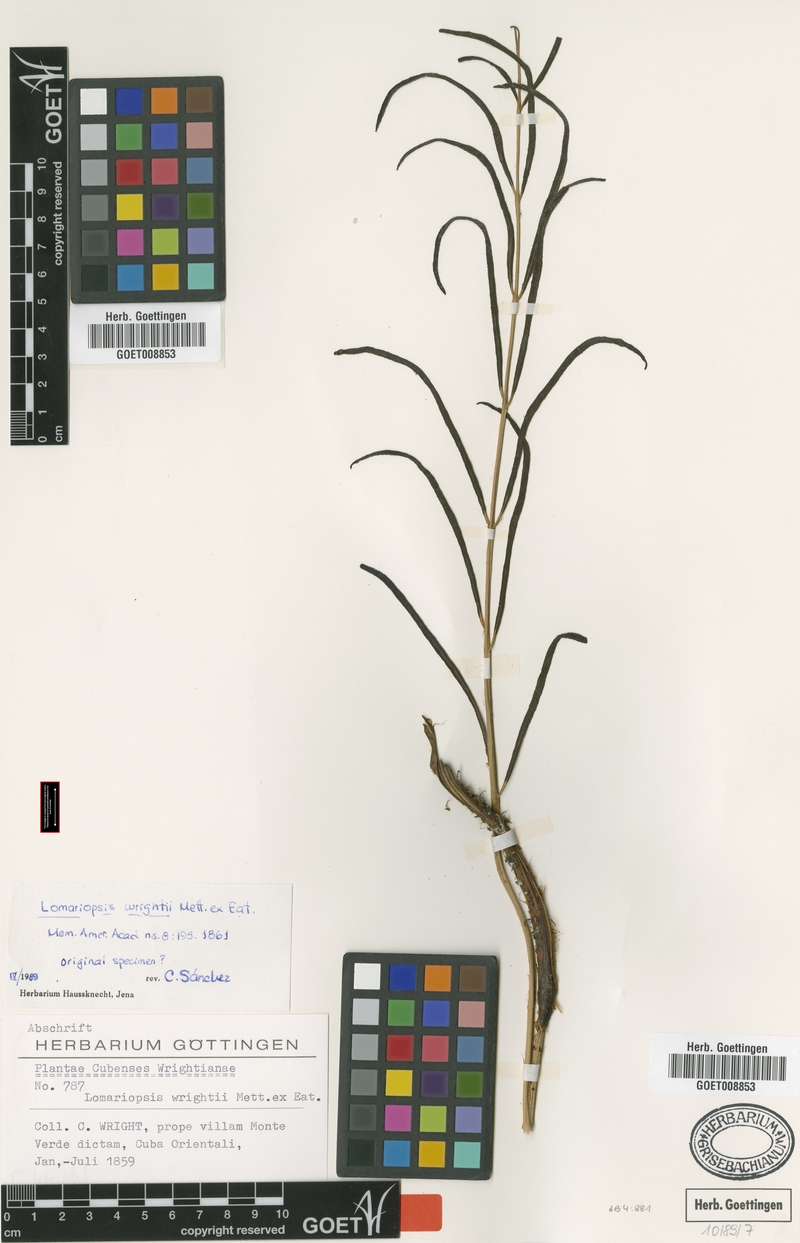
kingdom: Plantae
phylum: Tracheophyta
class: Polypodiopsida
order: Polypodiales
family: Lomariopsidaceae
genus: Lomariopsis
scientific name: Lomariopsis wrightii
